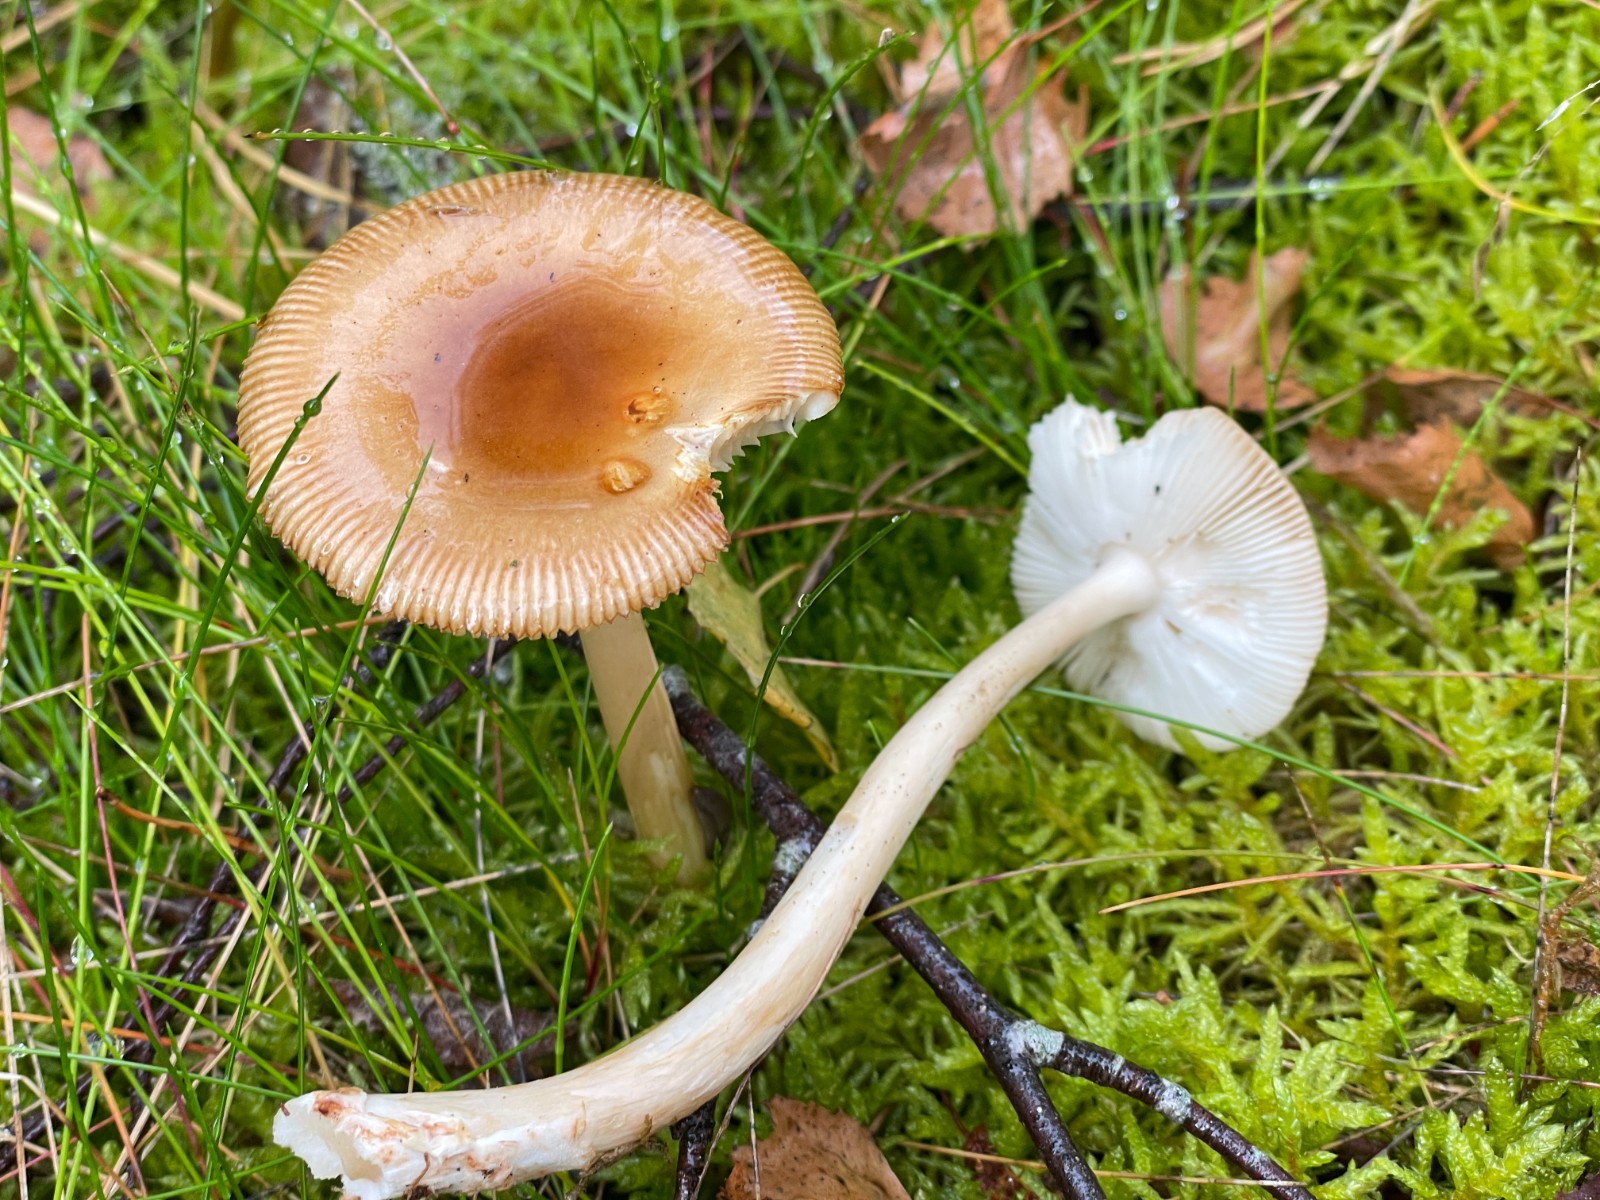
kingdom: Fungi
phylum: Basidiomycota
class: Agaricomycetes
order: Agaricales
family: Amanitaceae
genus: Amanita
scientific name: Amanita fulva
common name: brun kam-fluesvamp
